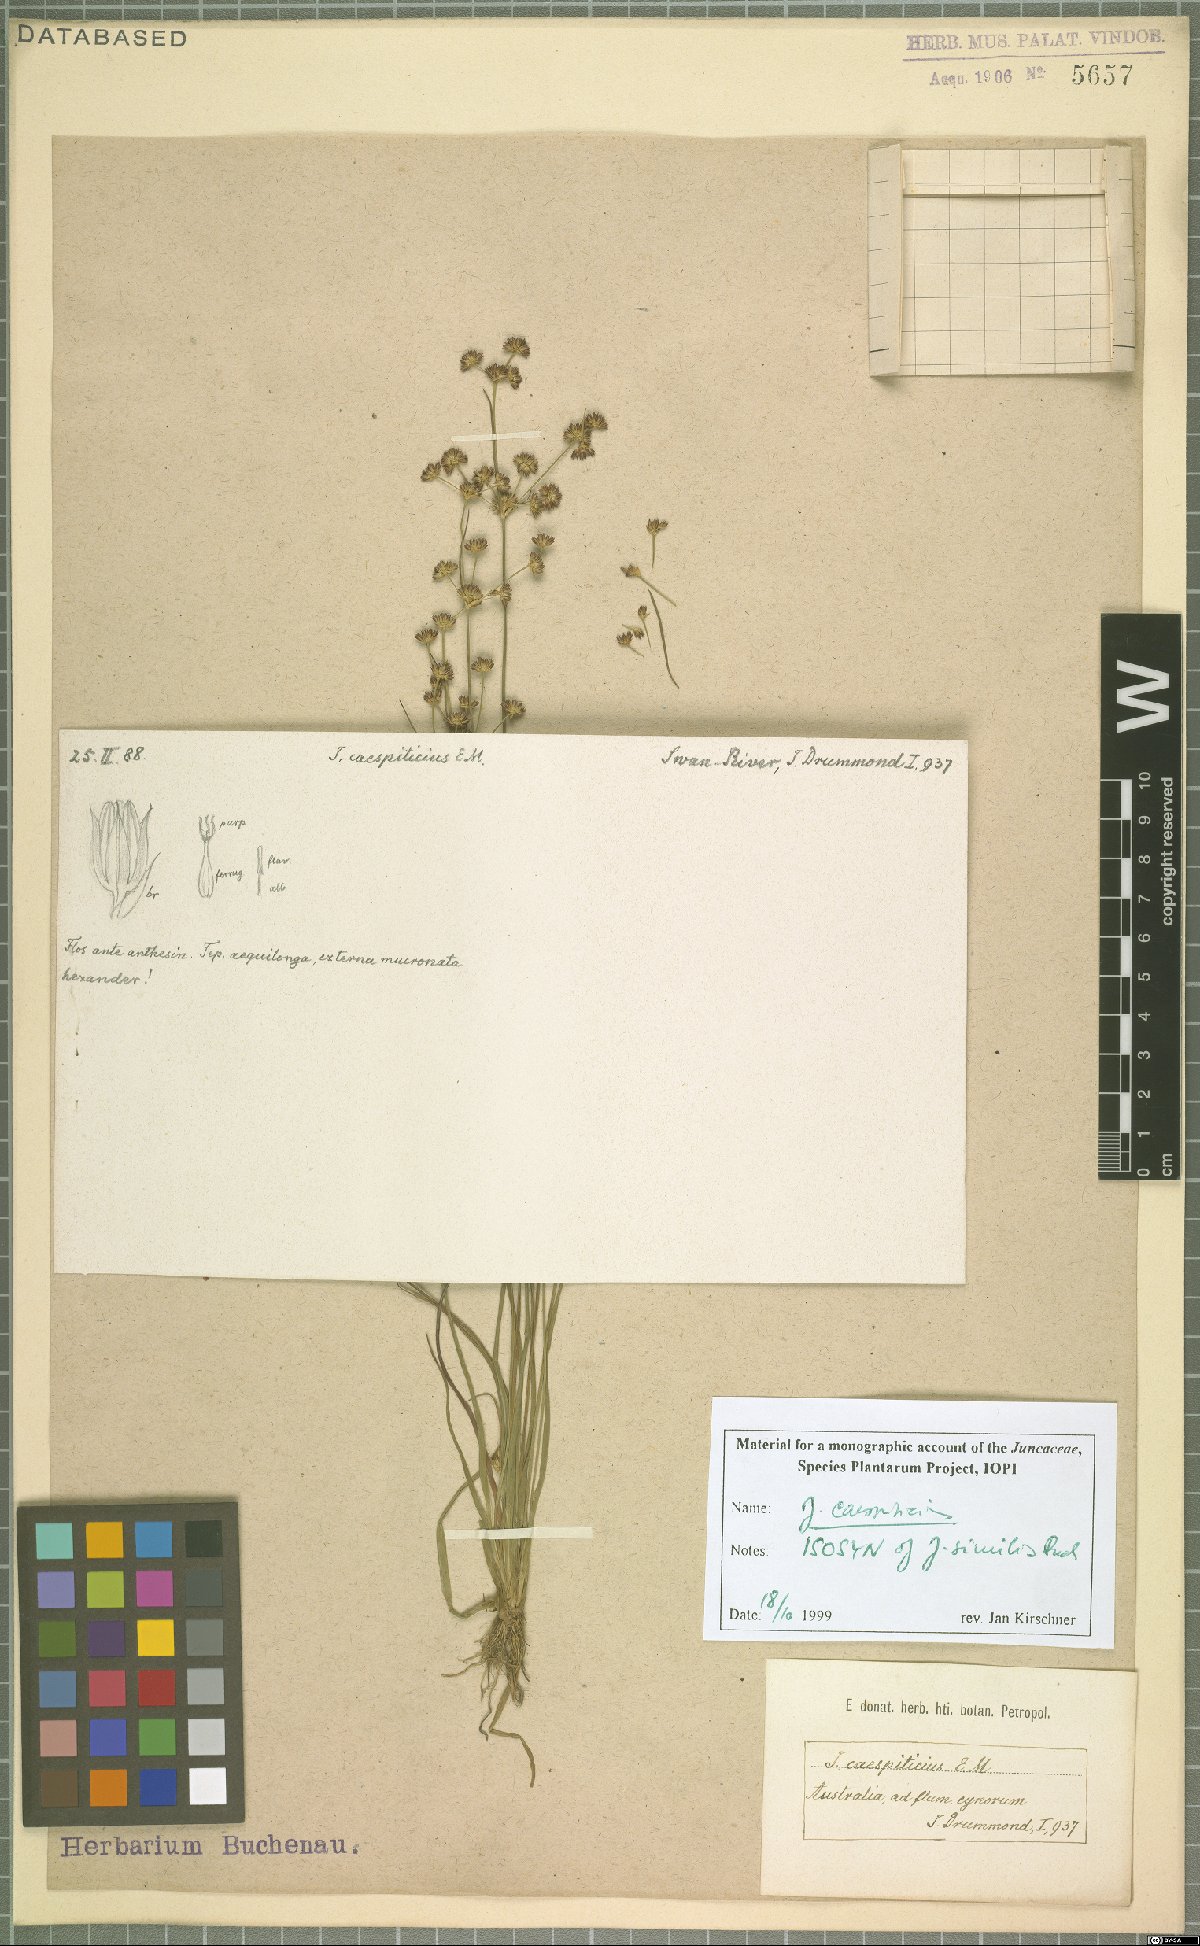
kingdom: Plantae
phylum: Tracheophyta
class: Liliopsida
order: Poales
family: Juncaceae
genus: Juncus
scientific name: Juncus caespiticius
